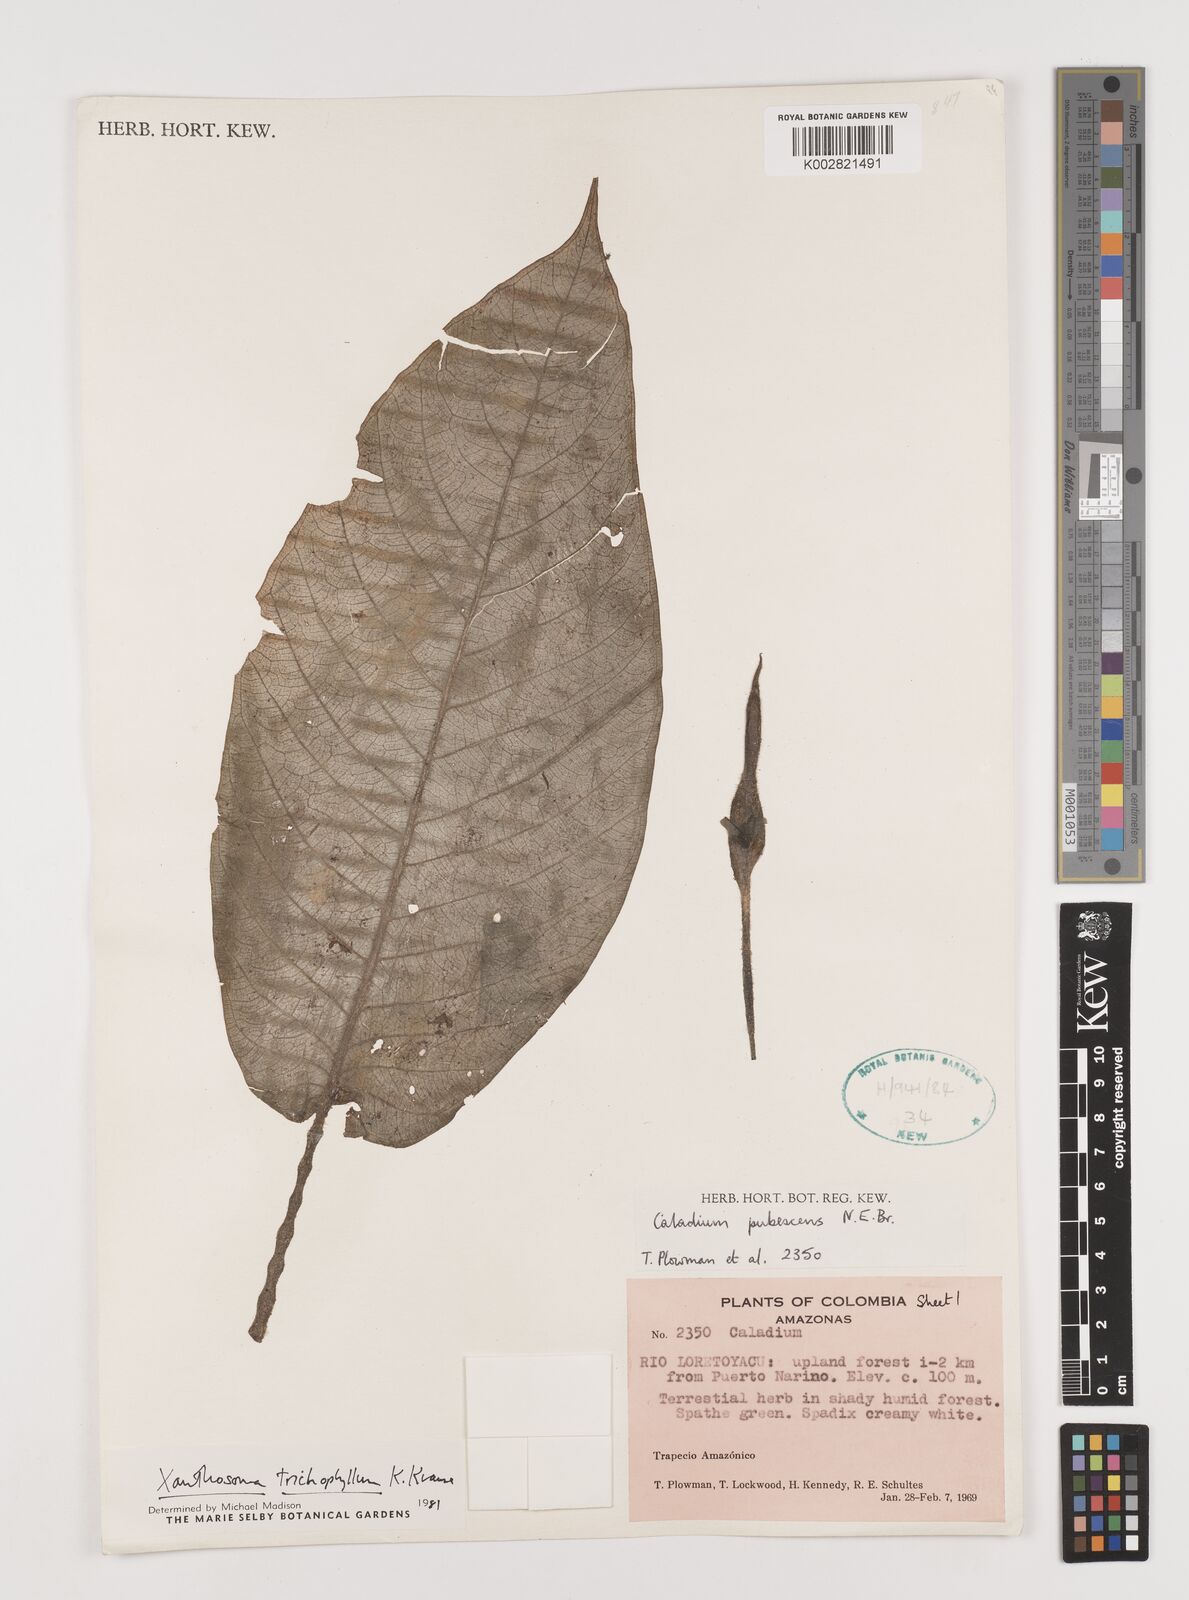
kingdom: Plantae
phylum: Tracheophyta
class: Liliopsida
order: Alismatales
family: Araceae
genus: Xanthosoma
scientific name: Xanthosoma trichophyllum
